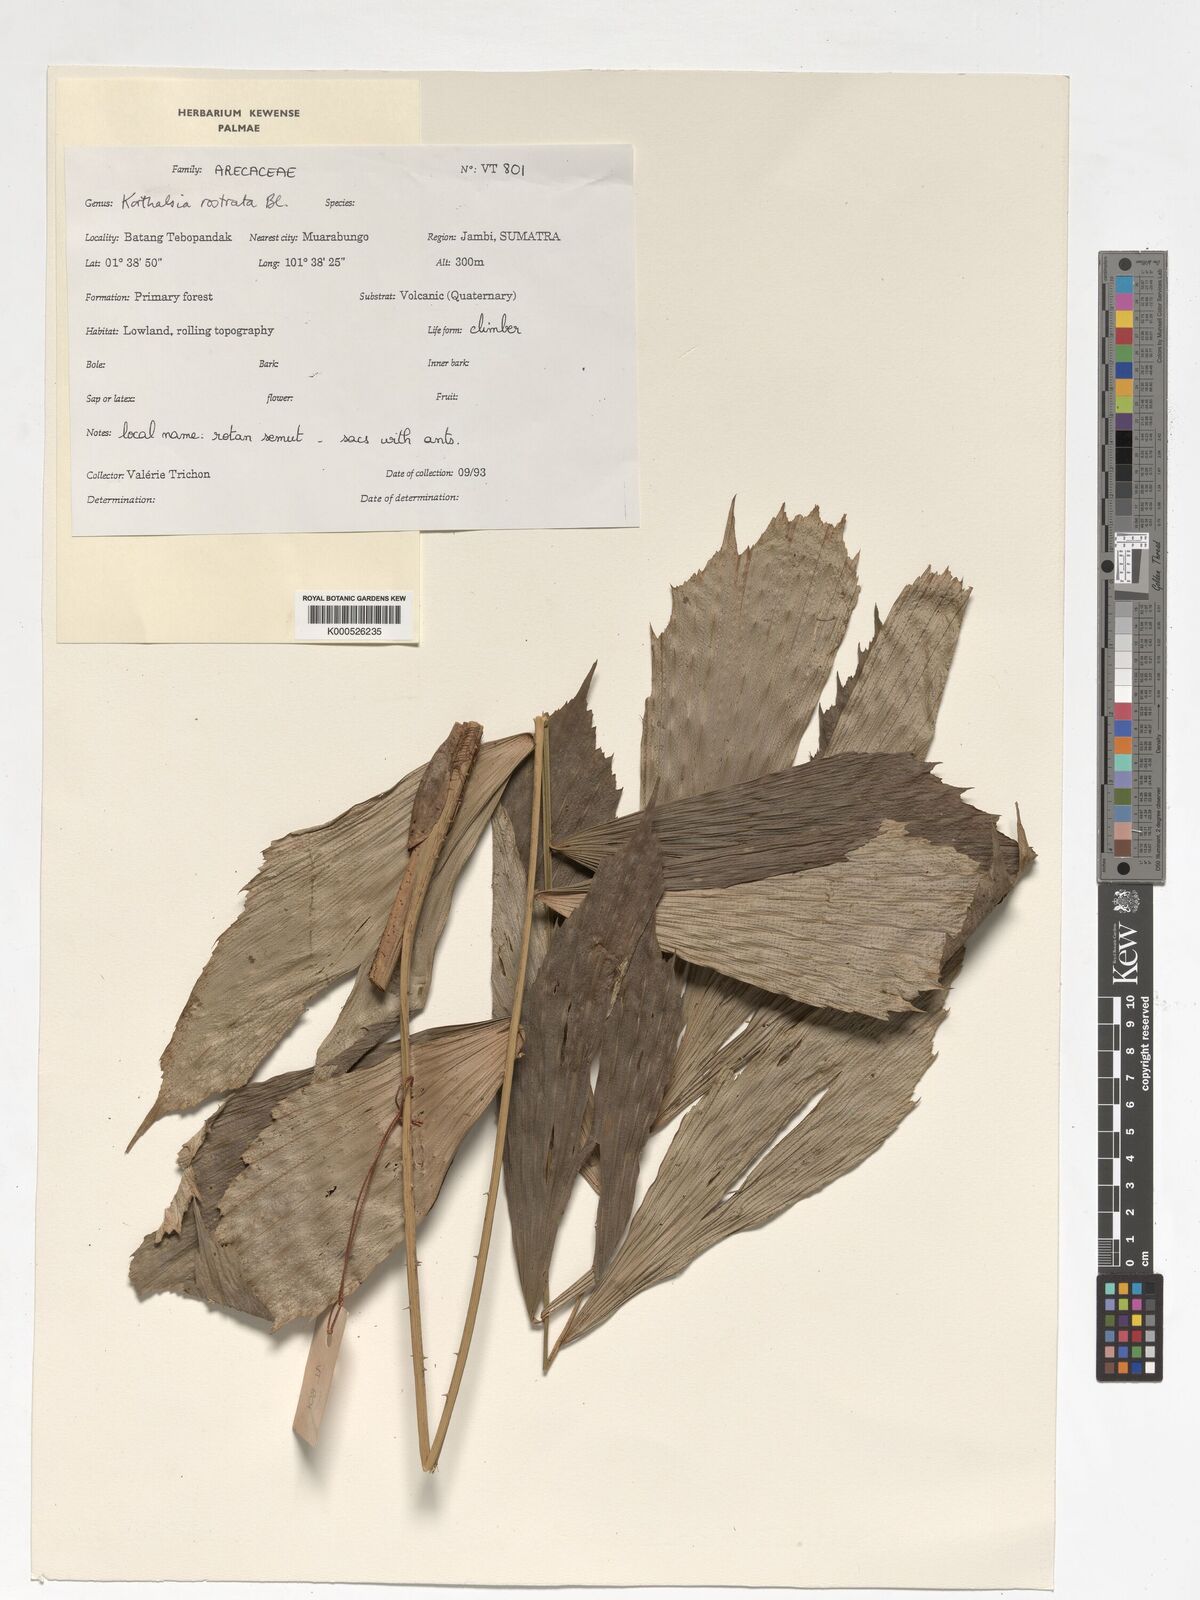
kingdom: Plantae
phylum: Tracheophyta
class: Liliopsida
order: Arecales
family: Arecaceae
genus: Korthalsia
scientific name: Korthalsia rostrata
